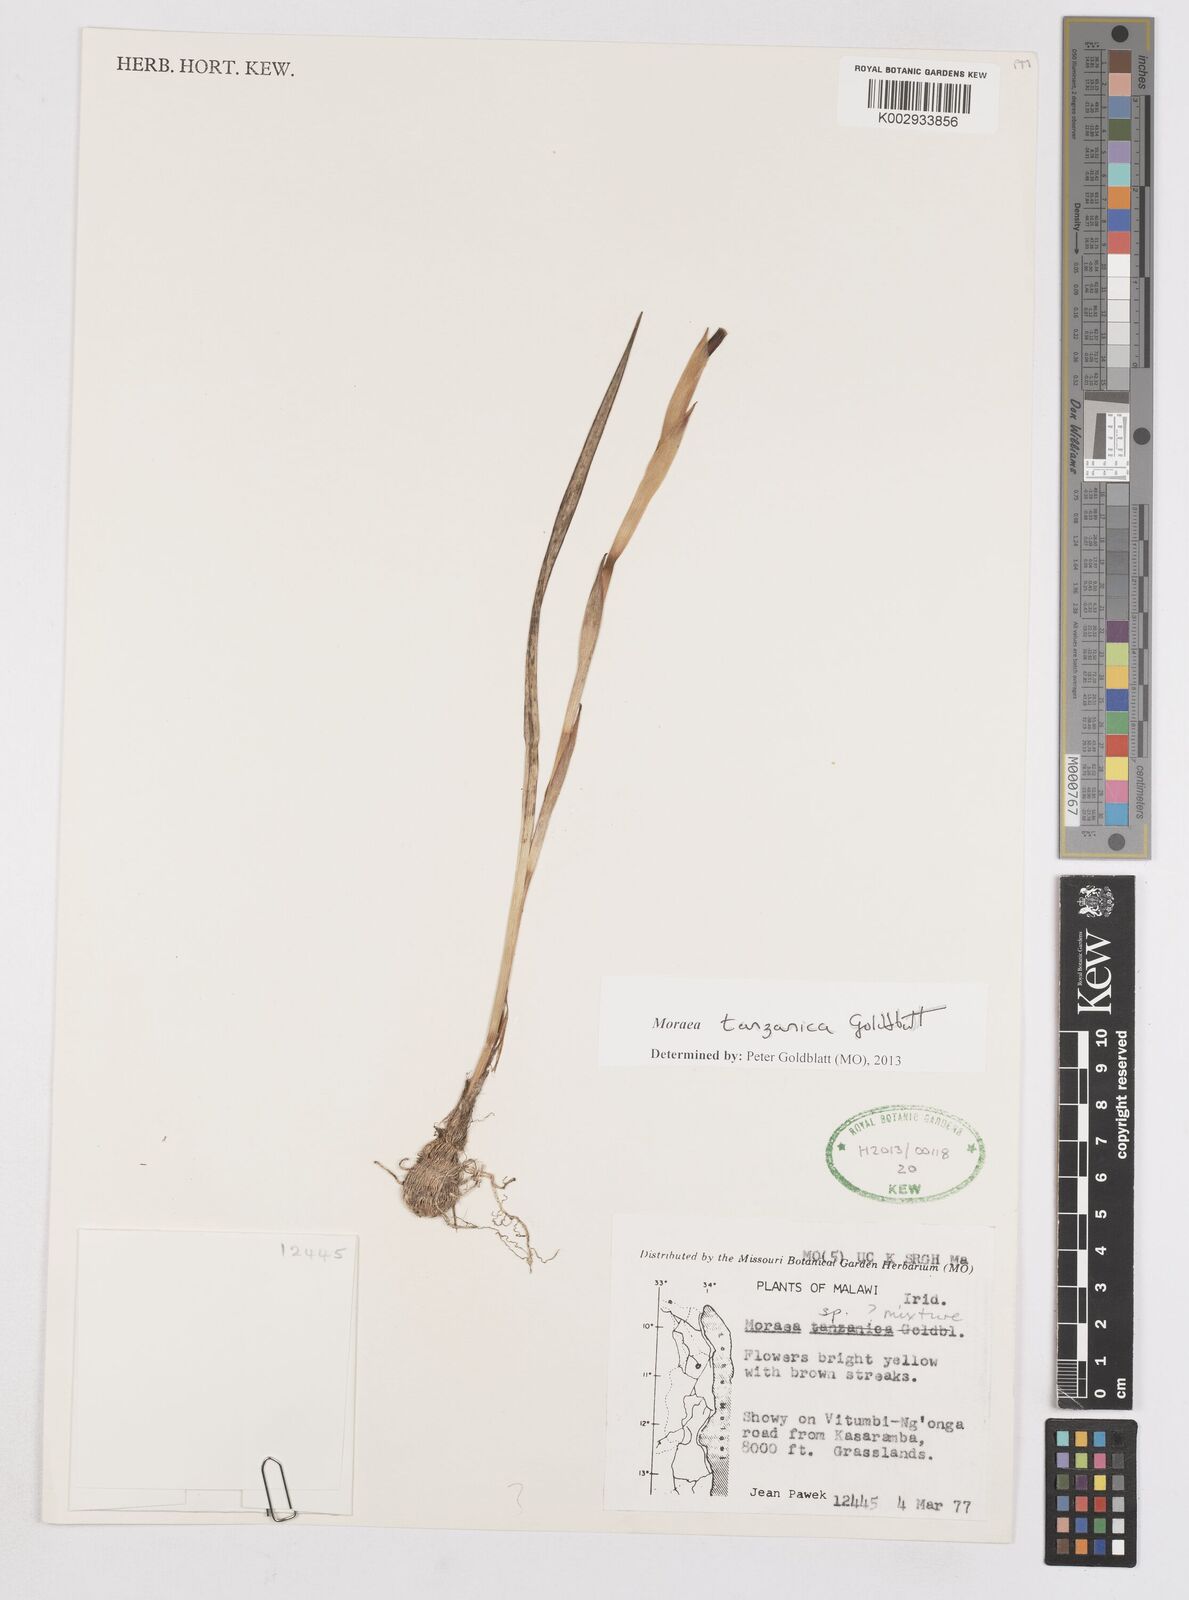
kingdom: Plantae
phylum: Tracheophyta
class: Liliopsida
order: Asparagales
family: Iridaceae
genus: Moraea
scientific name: Moraea tanzanica
